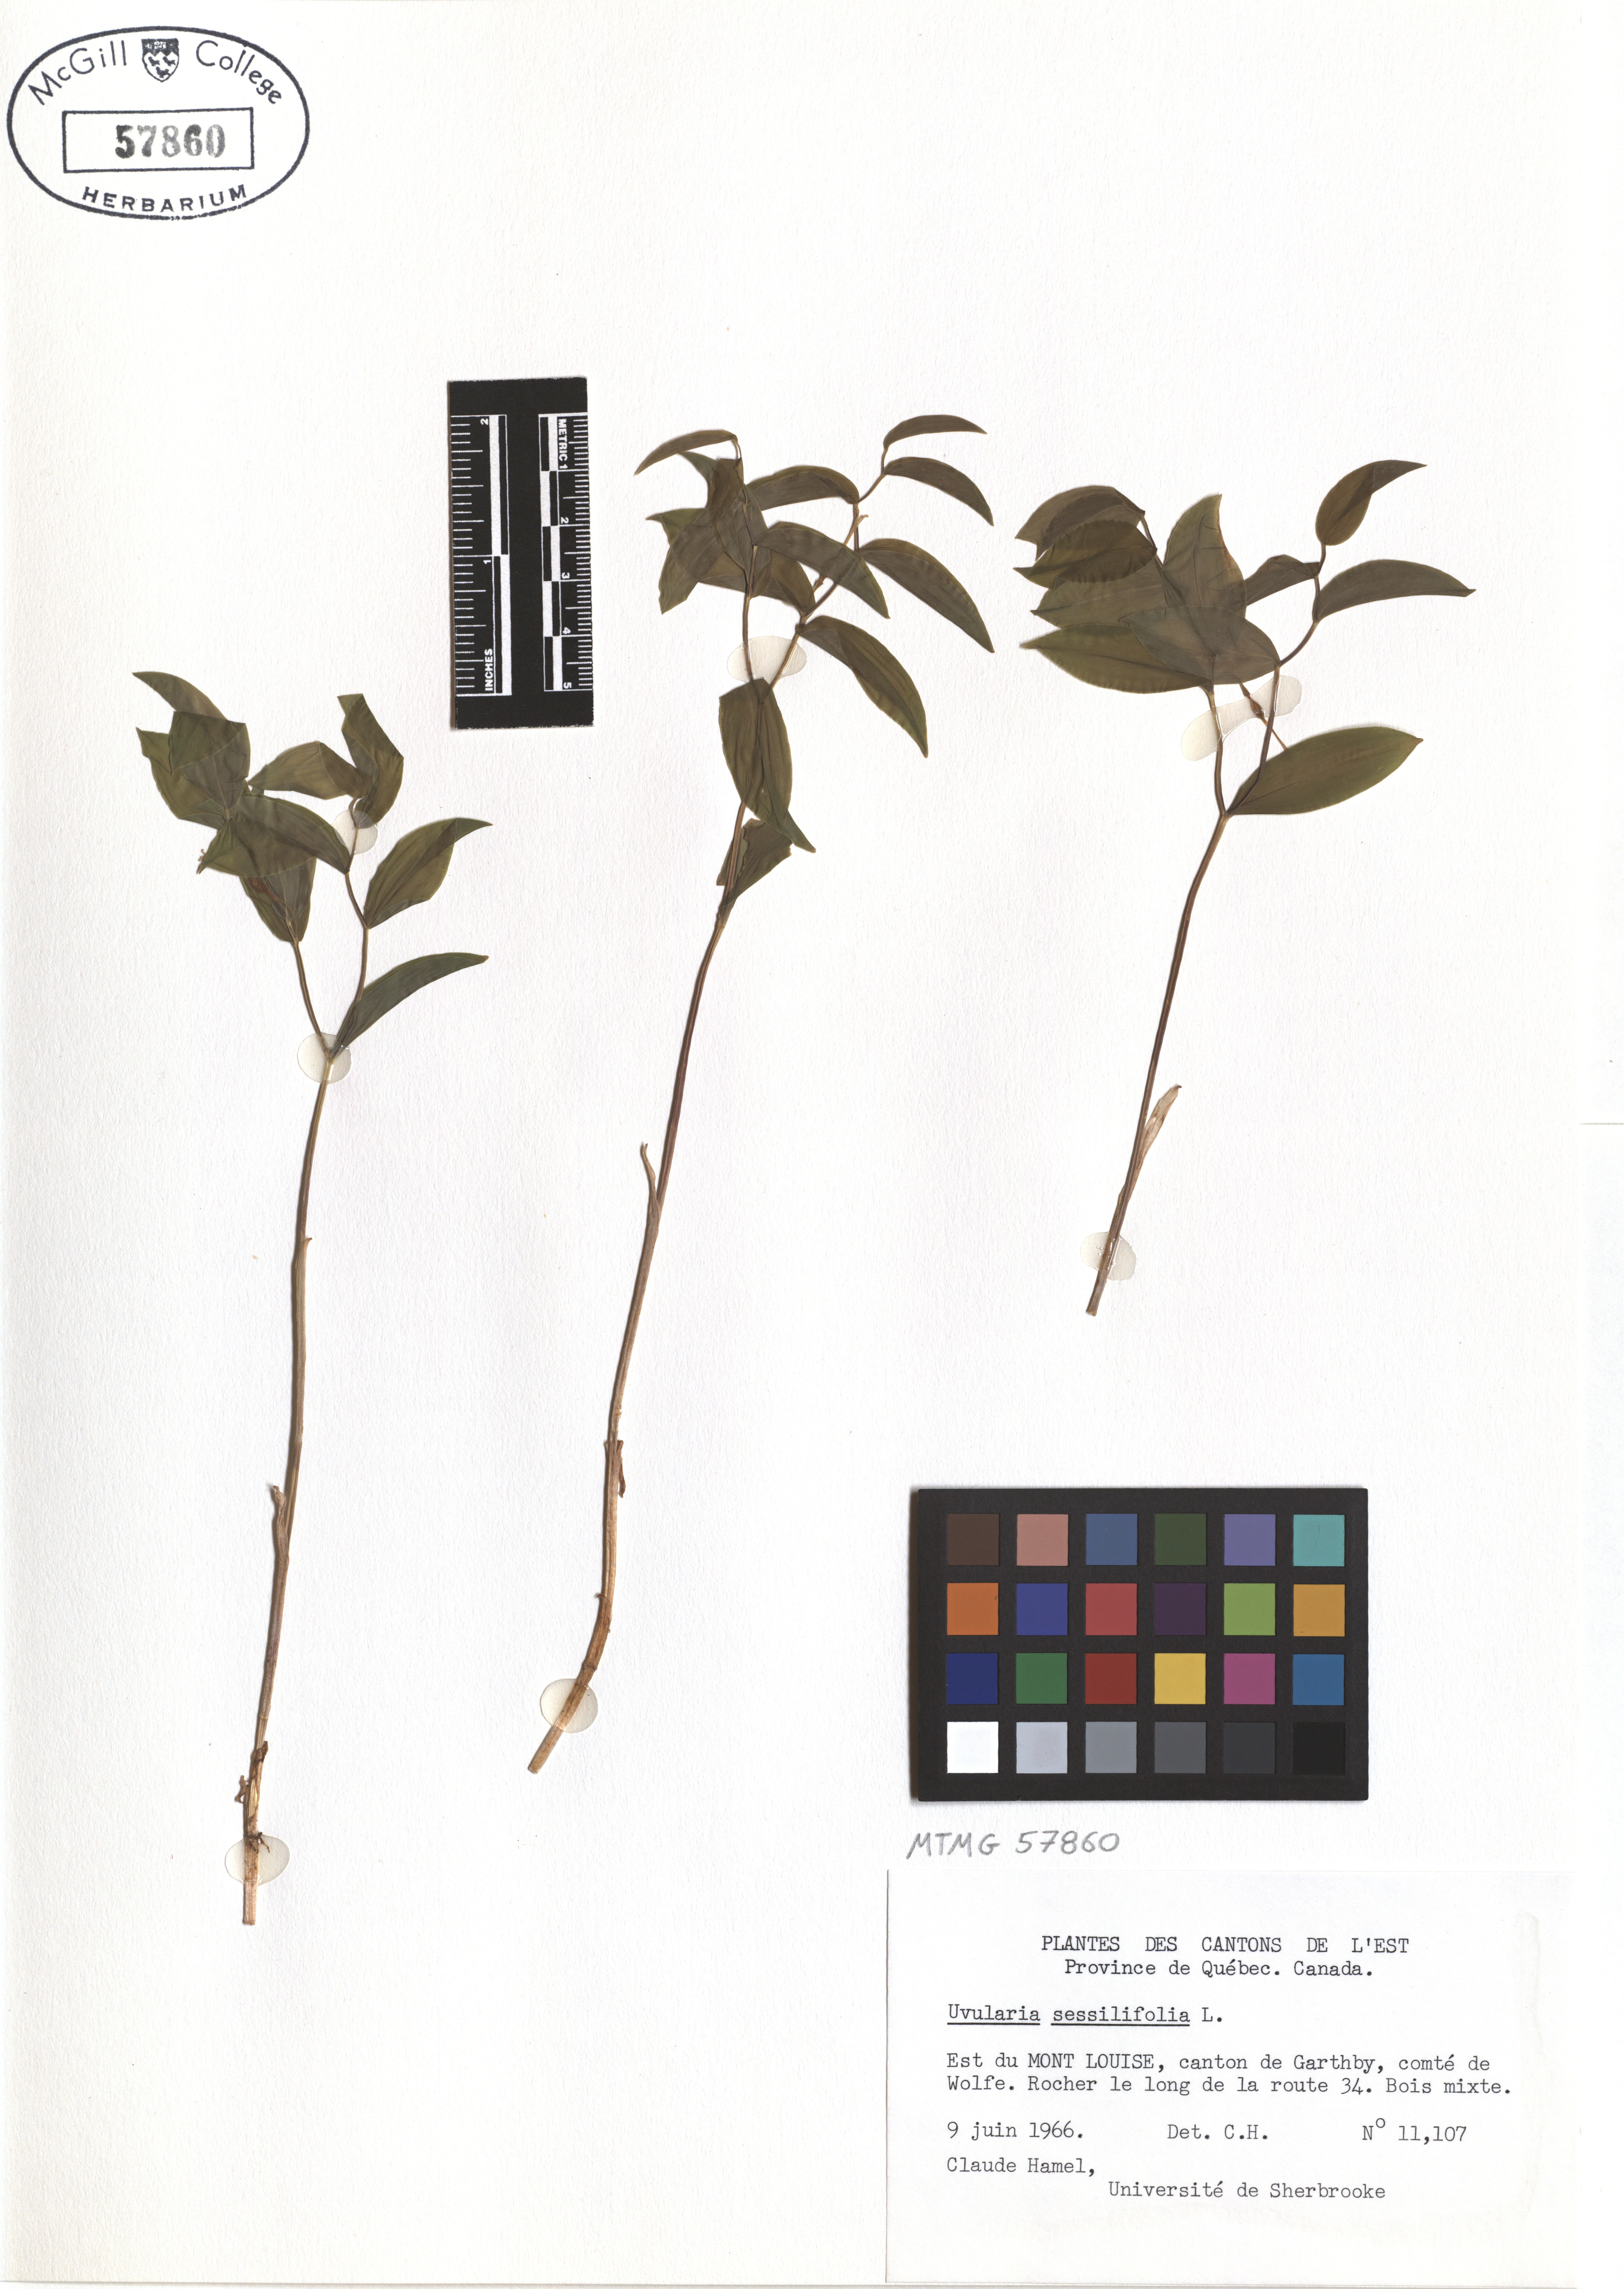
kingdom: Plantae
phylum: Tracheophyta
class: Liliopsida
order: Liliales
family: Colchicaceae
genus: Uvularia
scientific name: Uvularia sessilifolia
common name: Straw-lily
